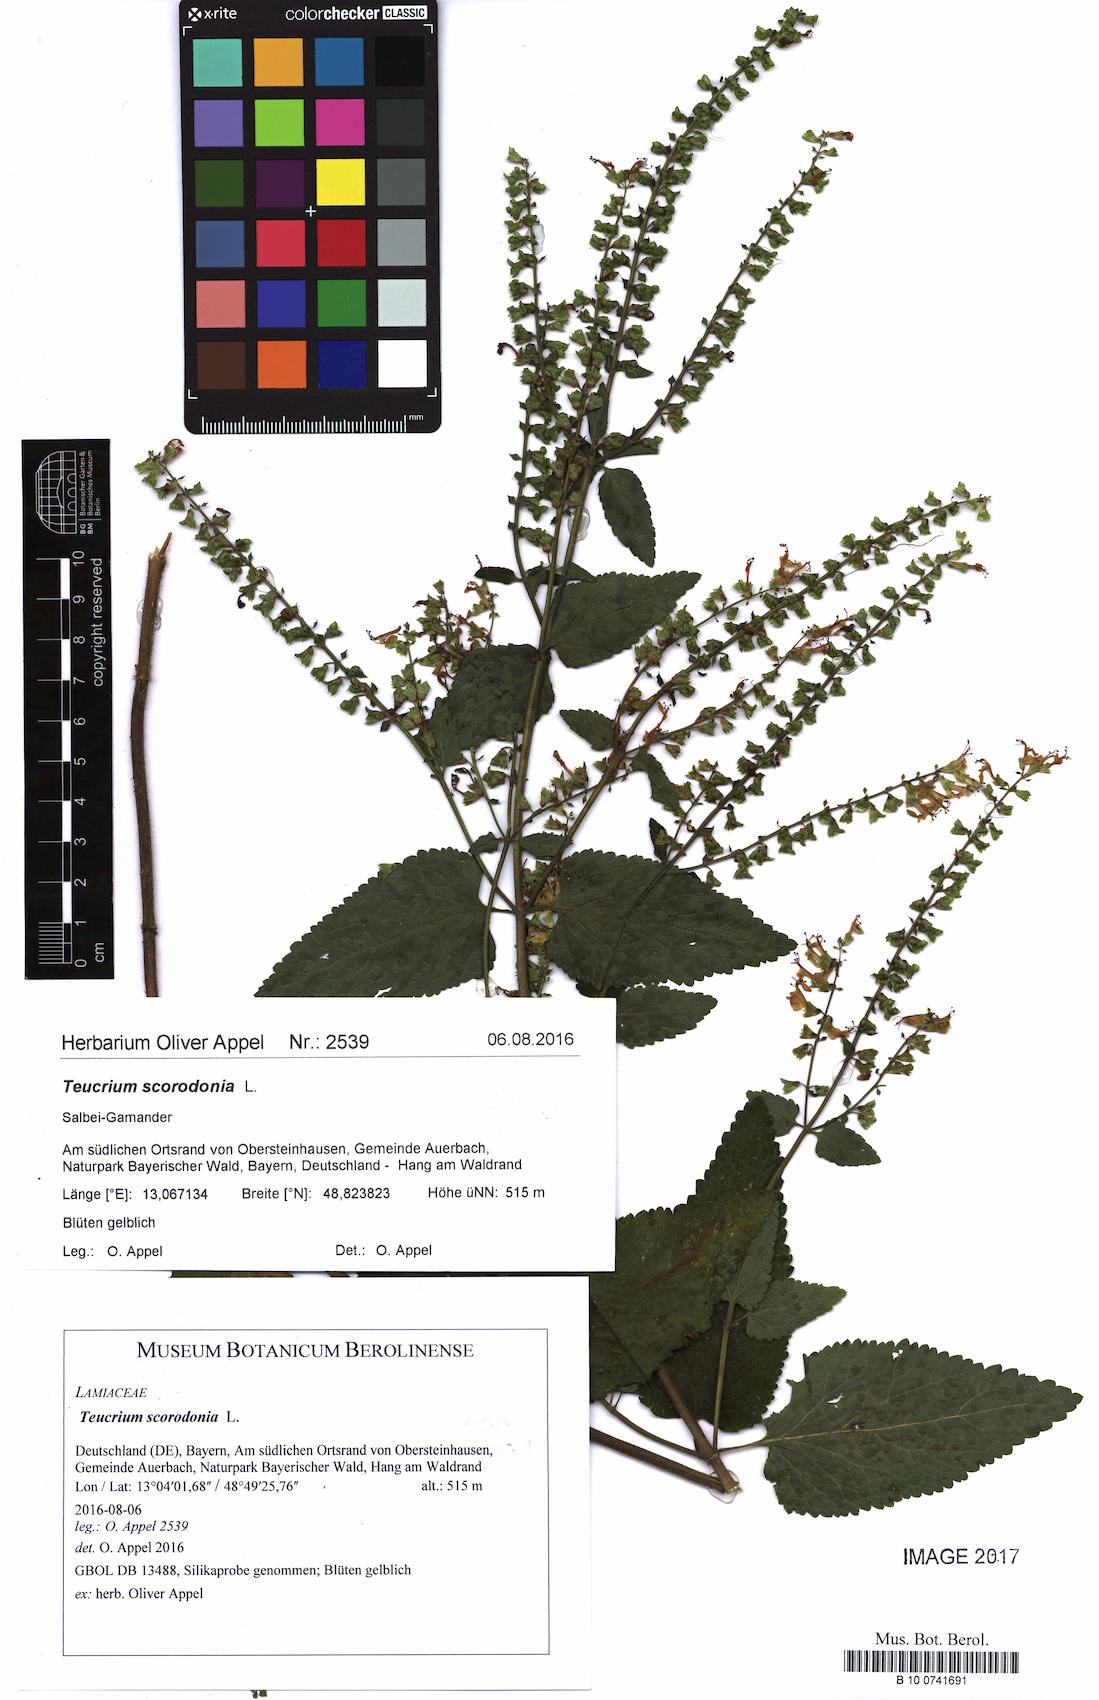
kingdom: Plantae
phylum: Tracheophyta
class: Magnoliopsida
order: Lamiales
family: Lamiaceae
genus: Teucrium
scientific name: Teucrium scorodonia
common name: Woodland germander
